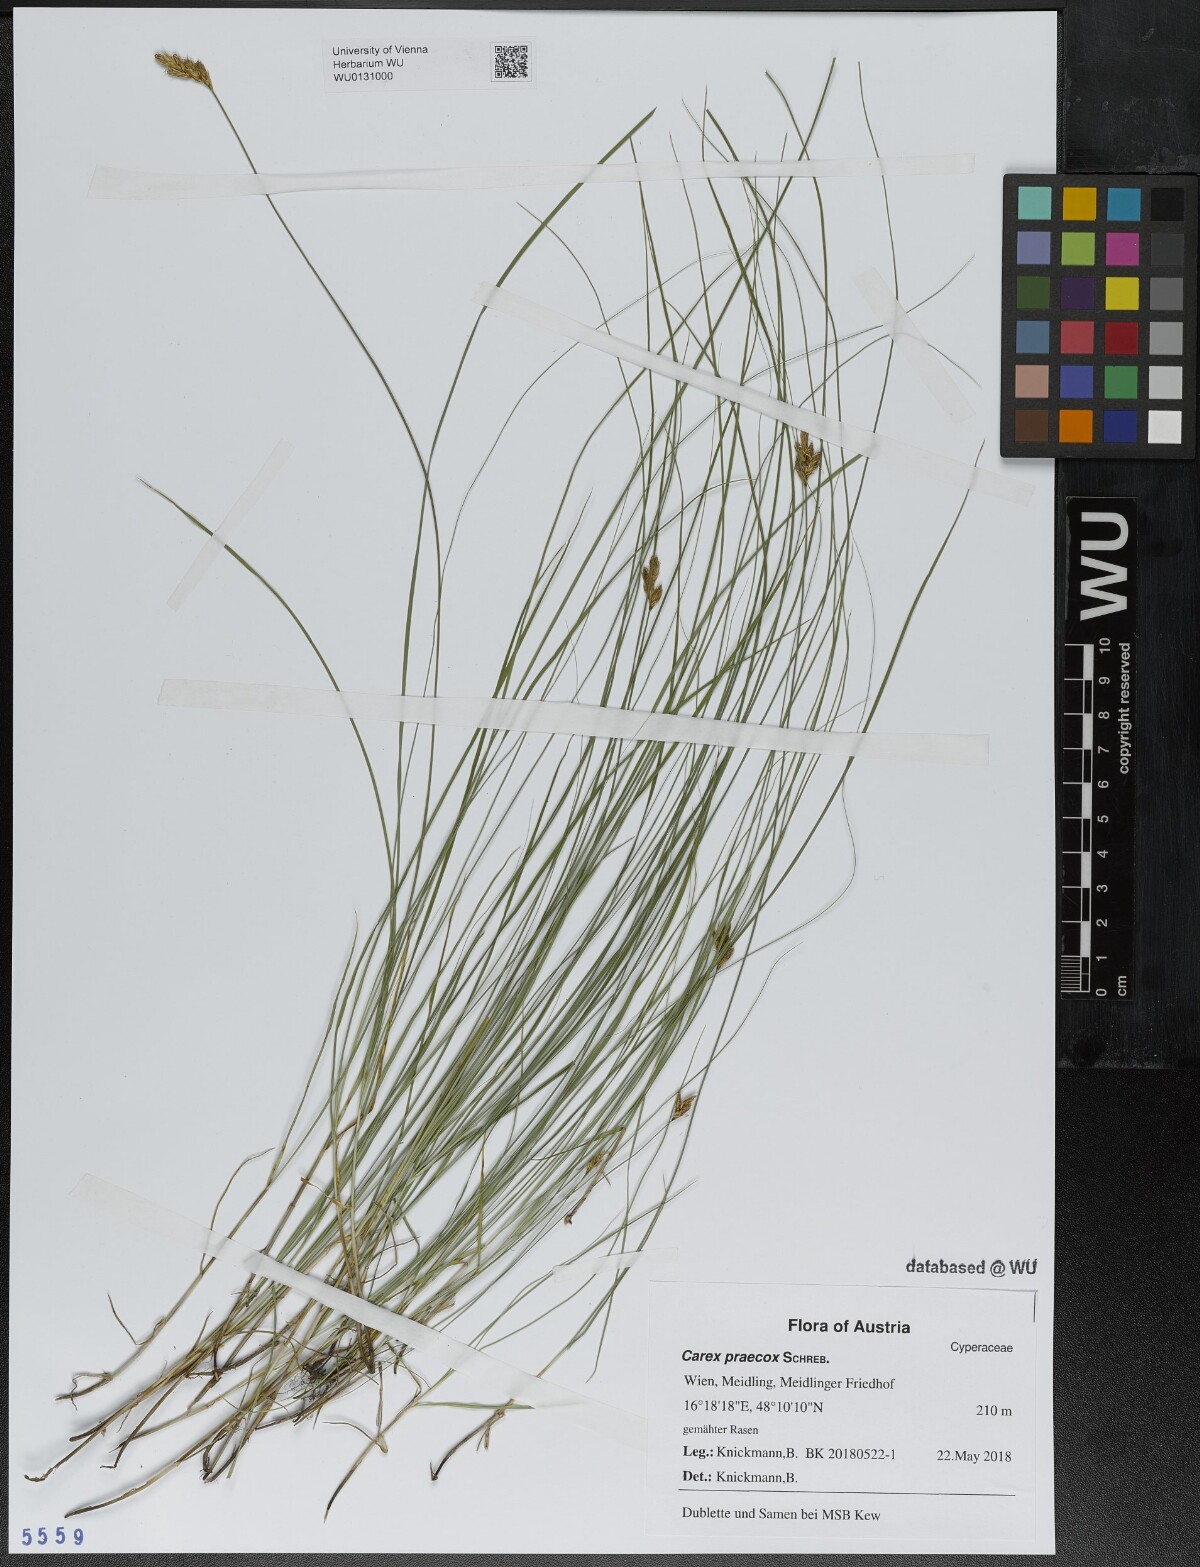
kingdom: Plantae
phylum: Tracheophyta
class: Liliopsida
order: Poales
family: Cyperaceae
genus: Carex
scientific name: Carex praecox
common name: Early sedge
